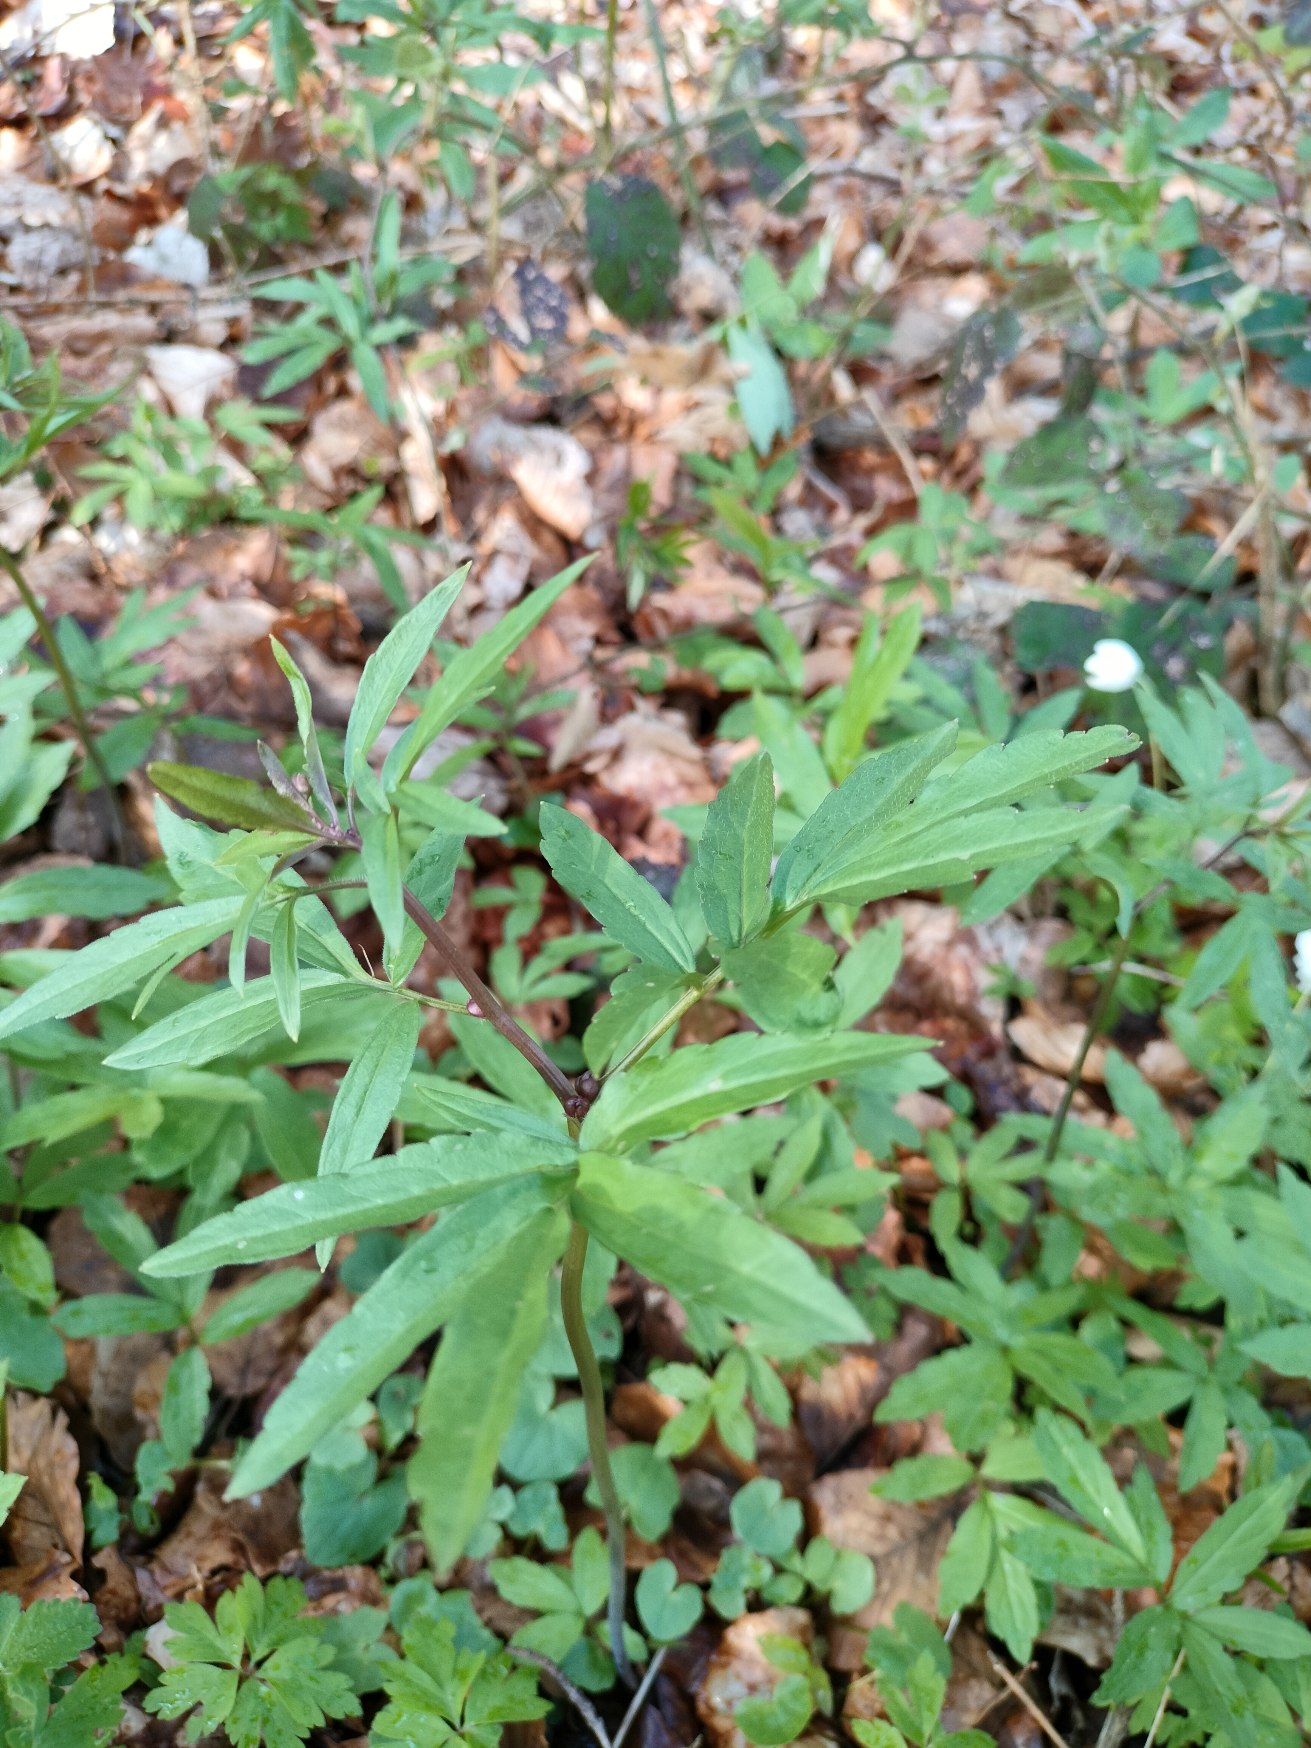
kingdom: Plantae
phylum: Tracheophyta
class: Magnoliopsida
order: Brassicales
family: Brassicaceae
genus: Cardamine
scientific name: Cardamine bulbifera
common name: Tandrod
